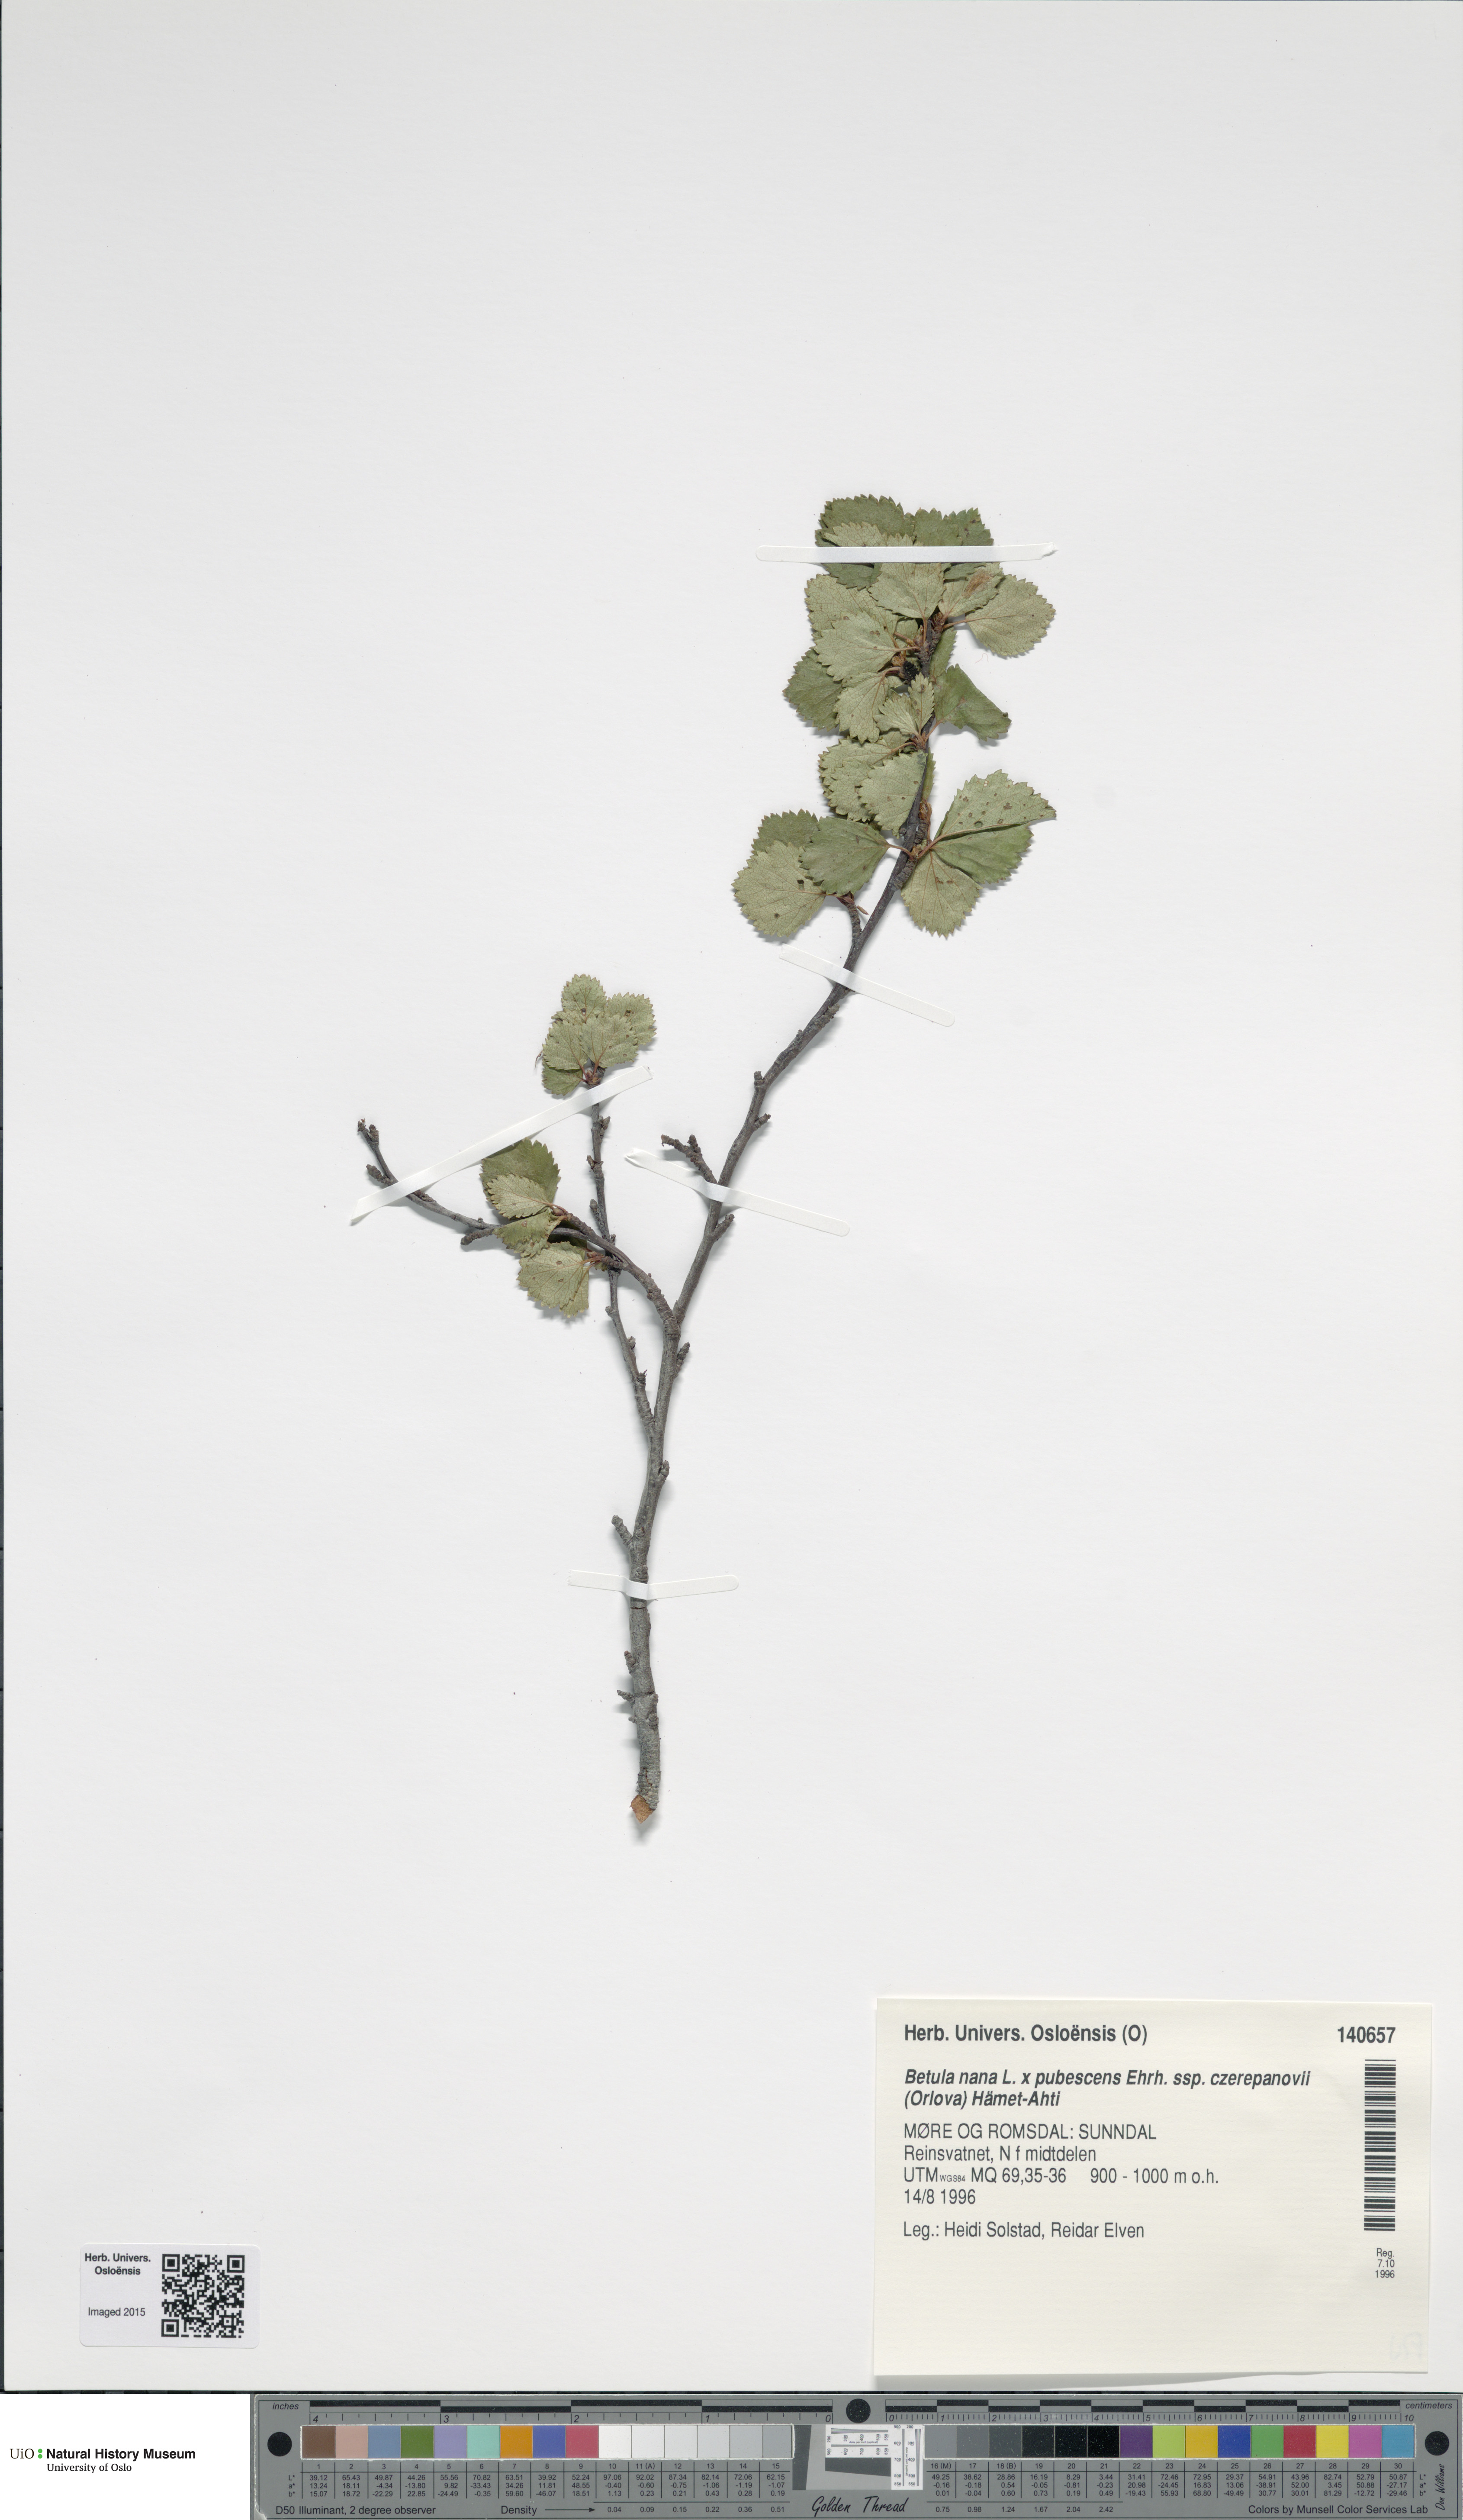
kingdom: Plantae
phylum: Tracheophyta
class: Magnoliopsida
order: Fagales
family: Betulaceae
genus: Betula
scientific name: Betula
